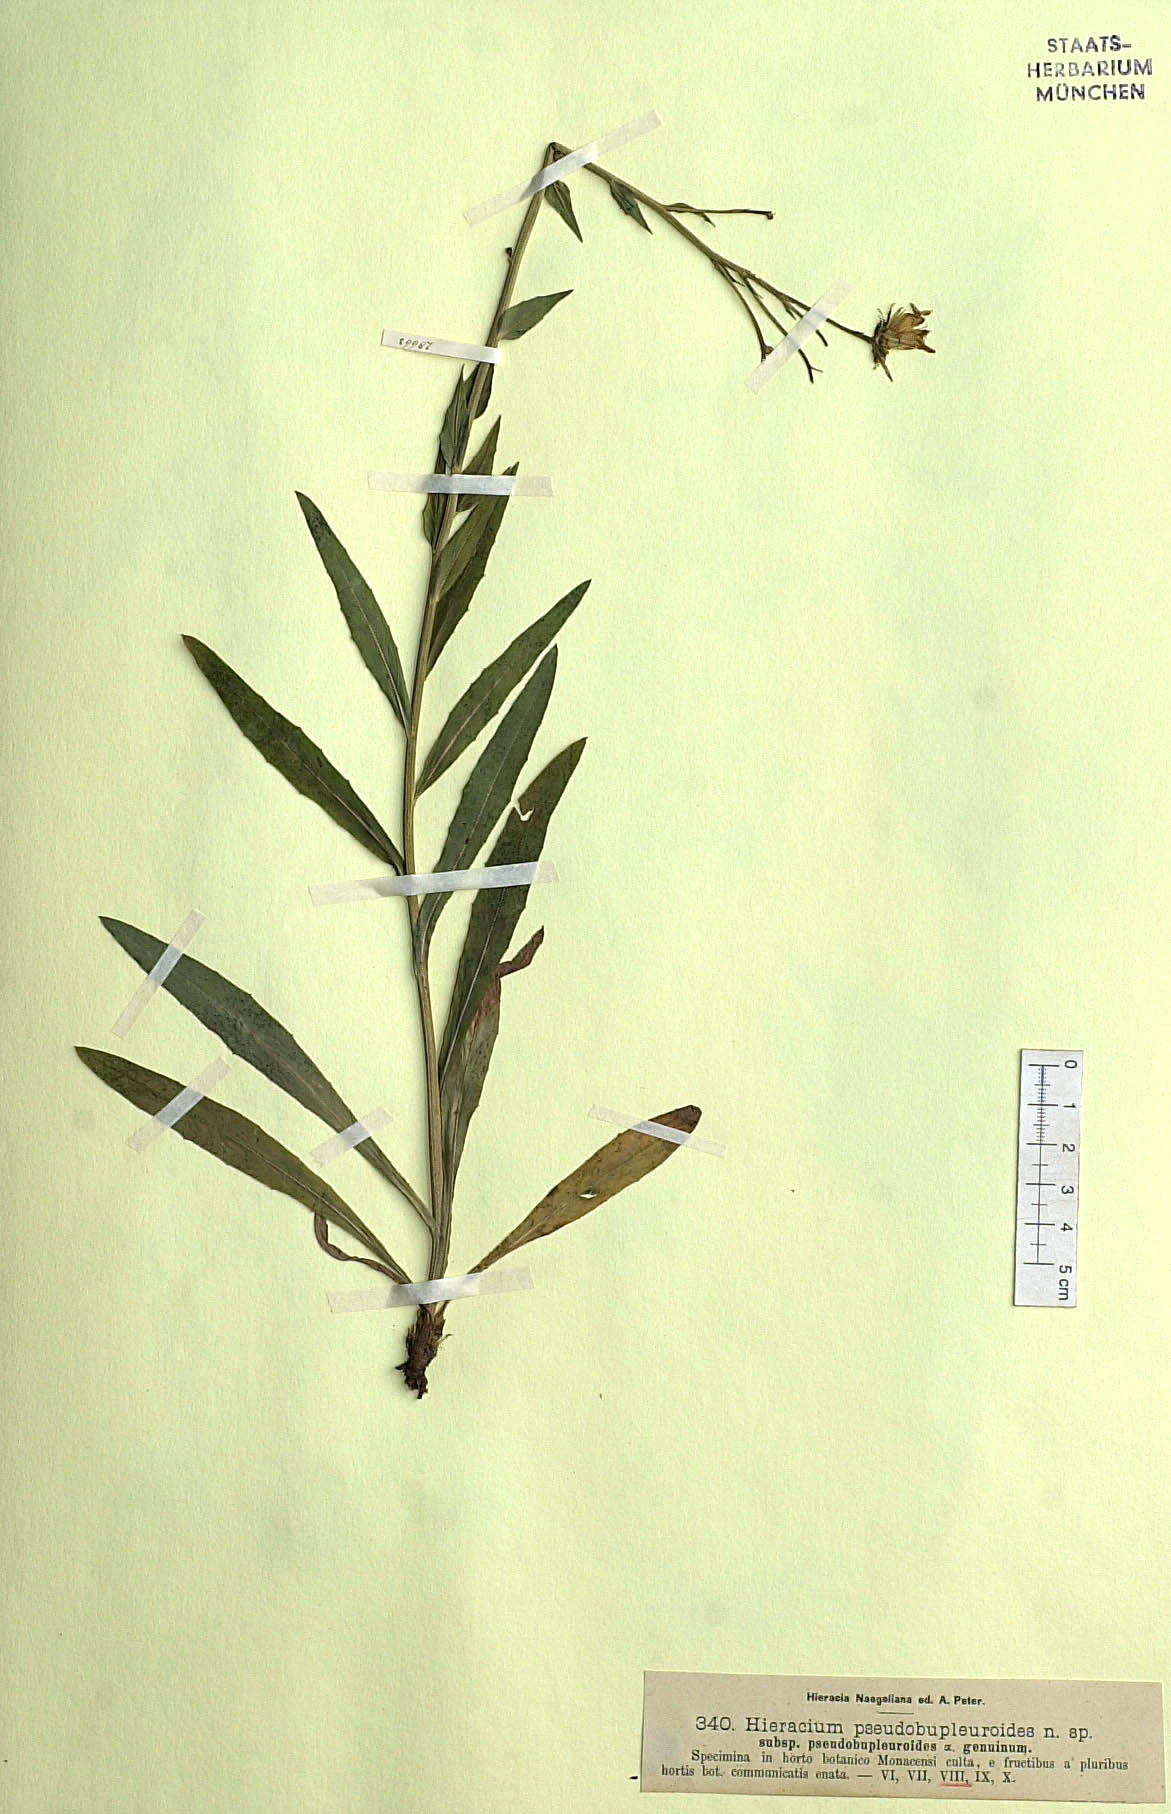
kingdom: Plantae
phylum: Tracheophyta
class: Magnoliopsida
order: Asterales
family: Asteraceae
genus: Hieracium
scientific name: Hieracium vindobonense
